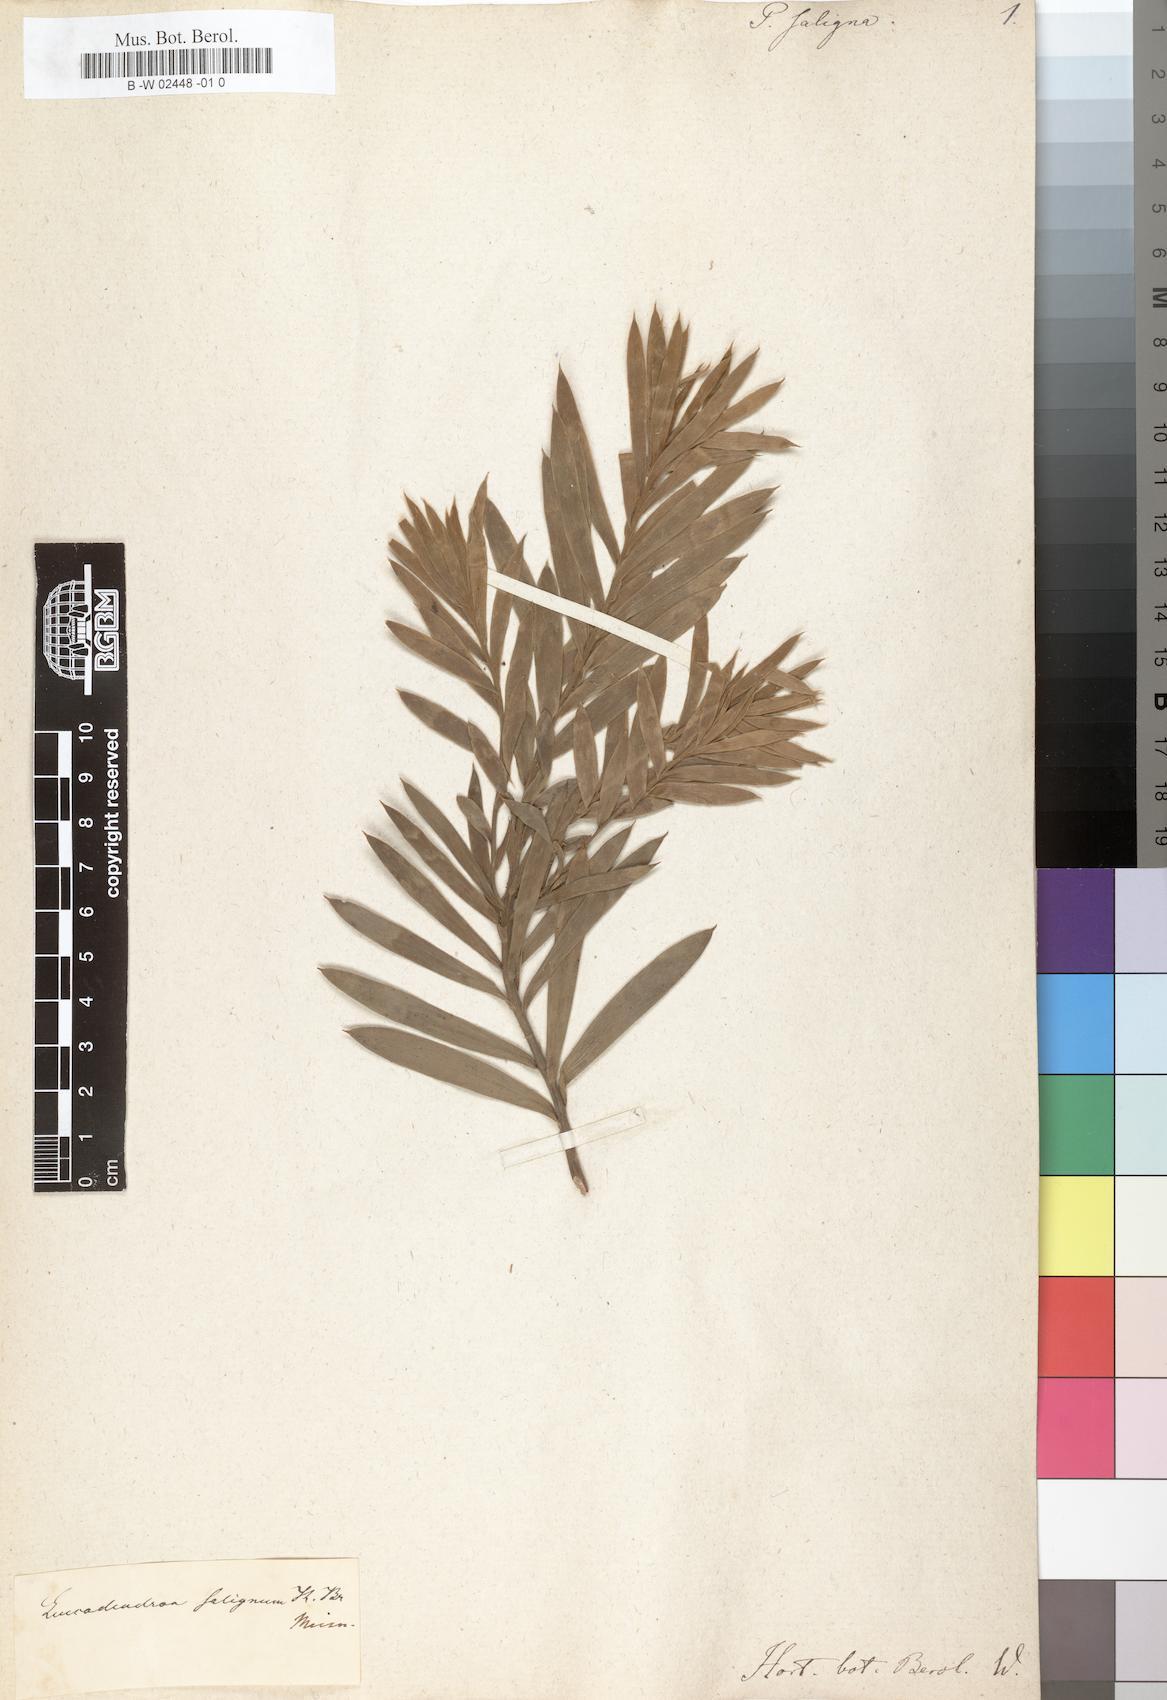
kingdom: Plantae
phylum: Tracheophyta
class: Magnoliopsida
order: Proteales
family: Proteaceae
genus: Leucadendron
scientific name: Leucadendron
